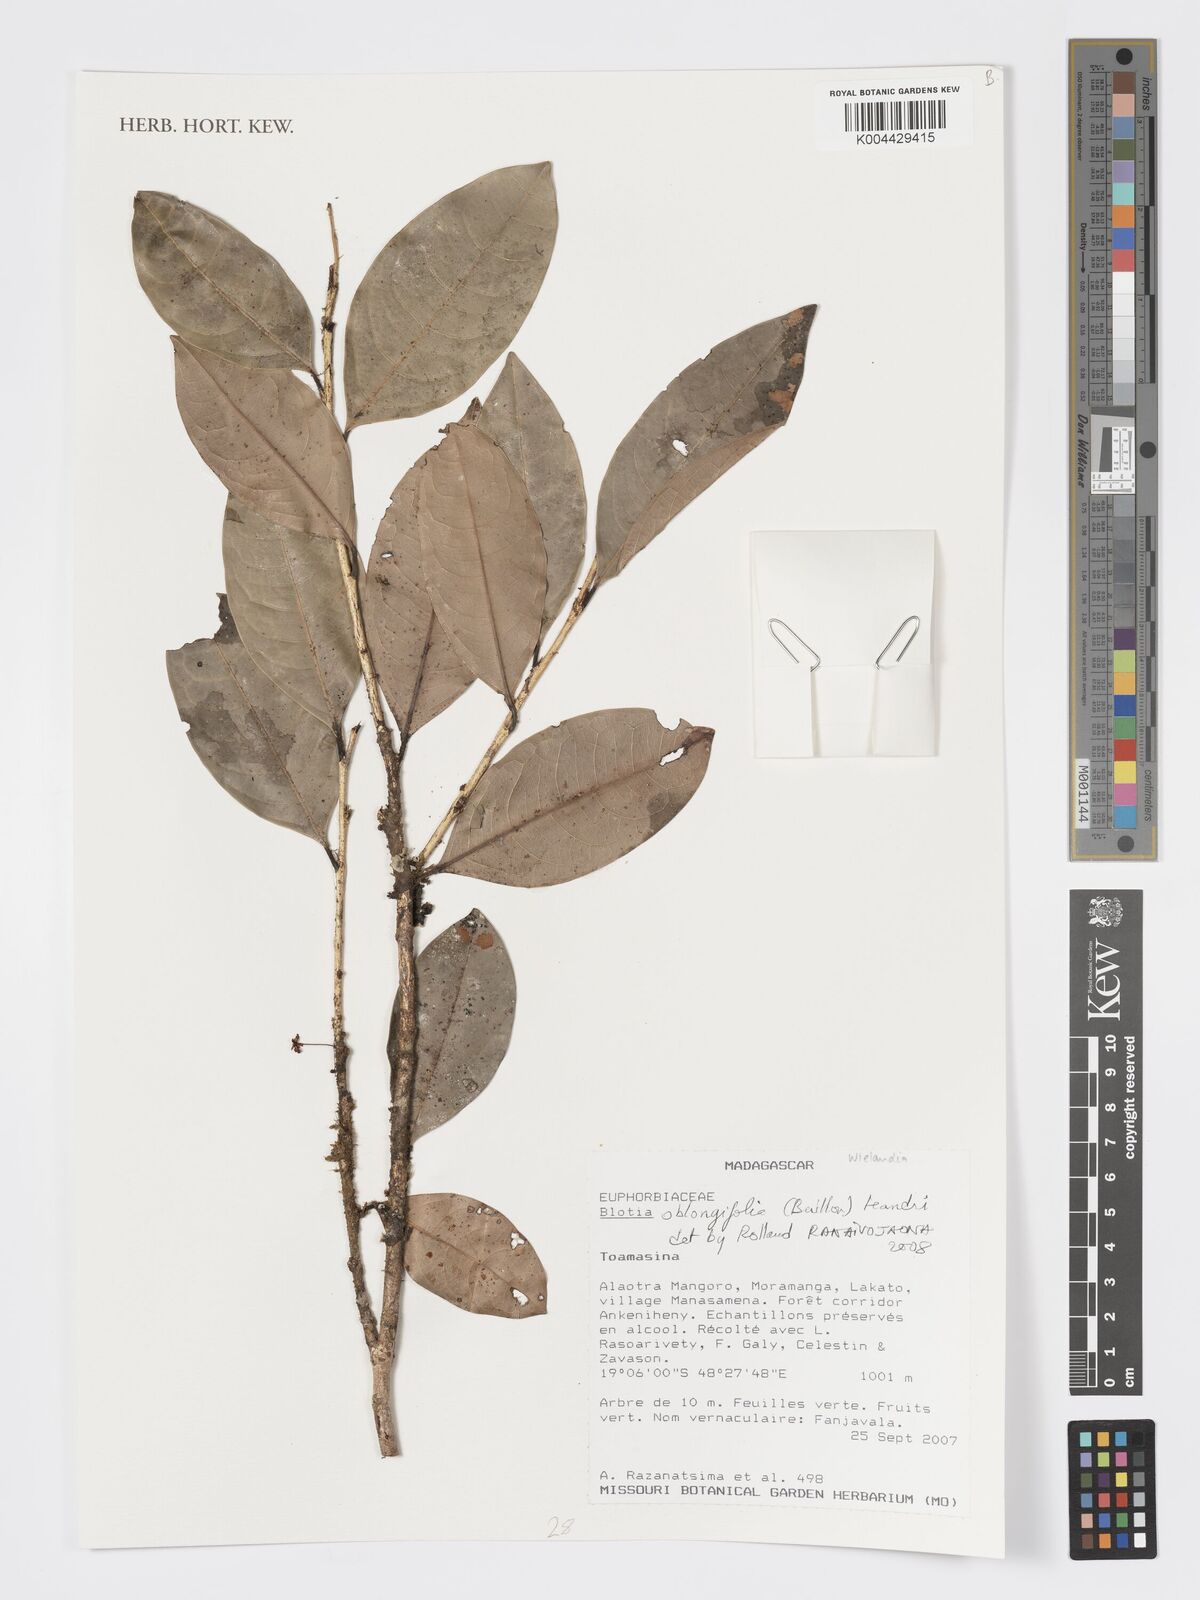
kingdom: Plantae
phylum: Tracheophyta
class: Magnoliopsida
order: Malpighiales
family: Phyllanthaceae
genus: Wielandia
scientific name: Wielandia oblongifolia
